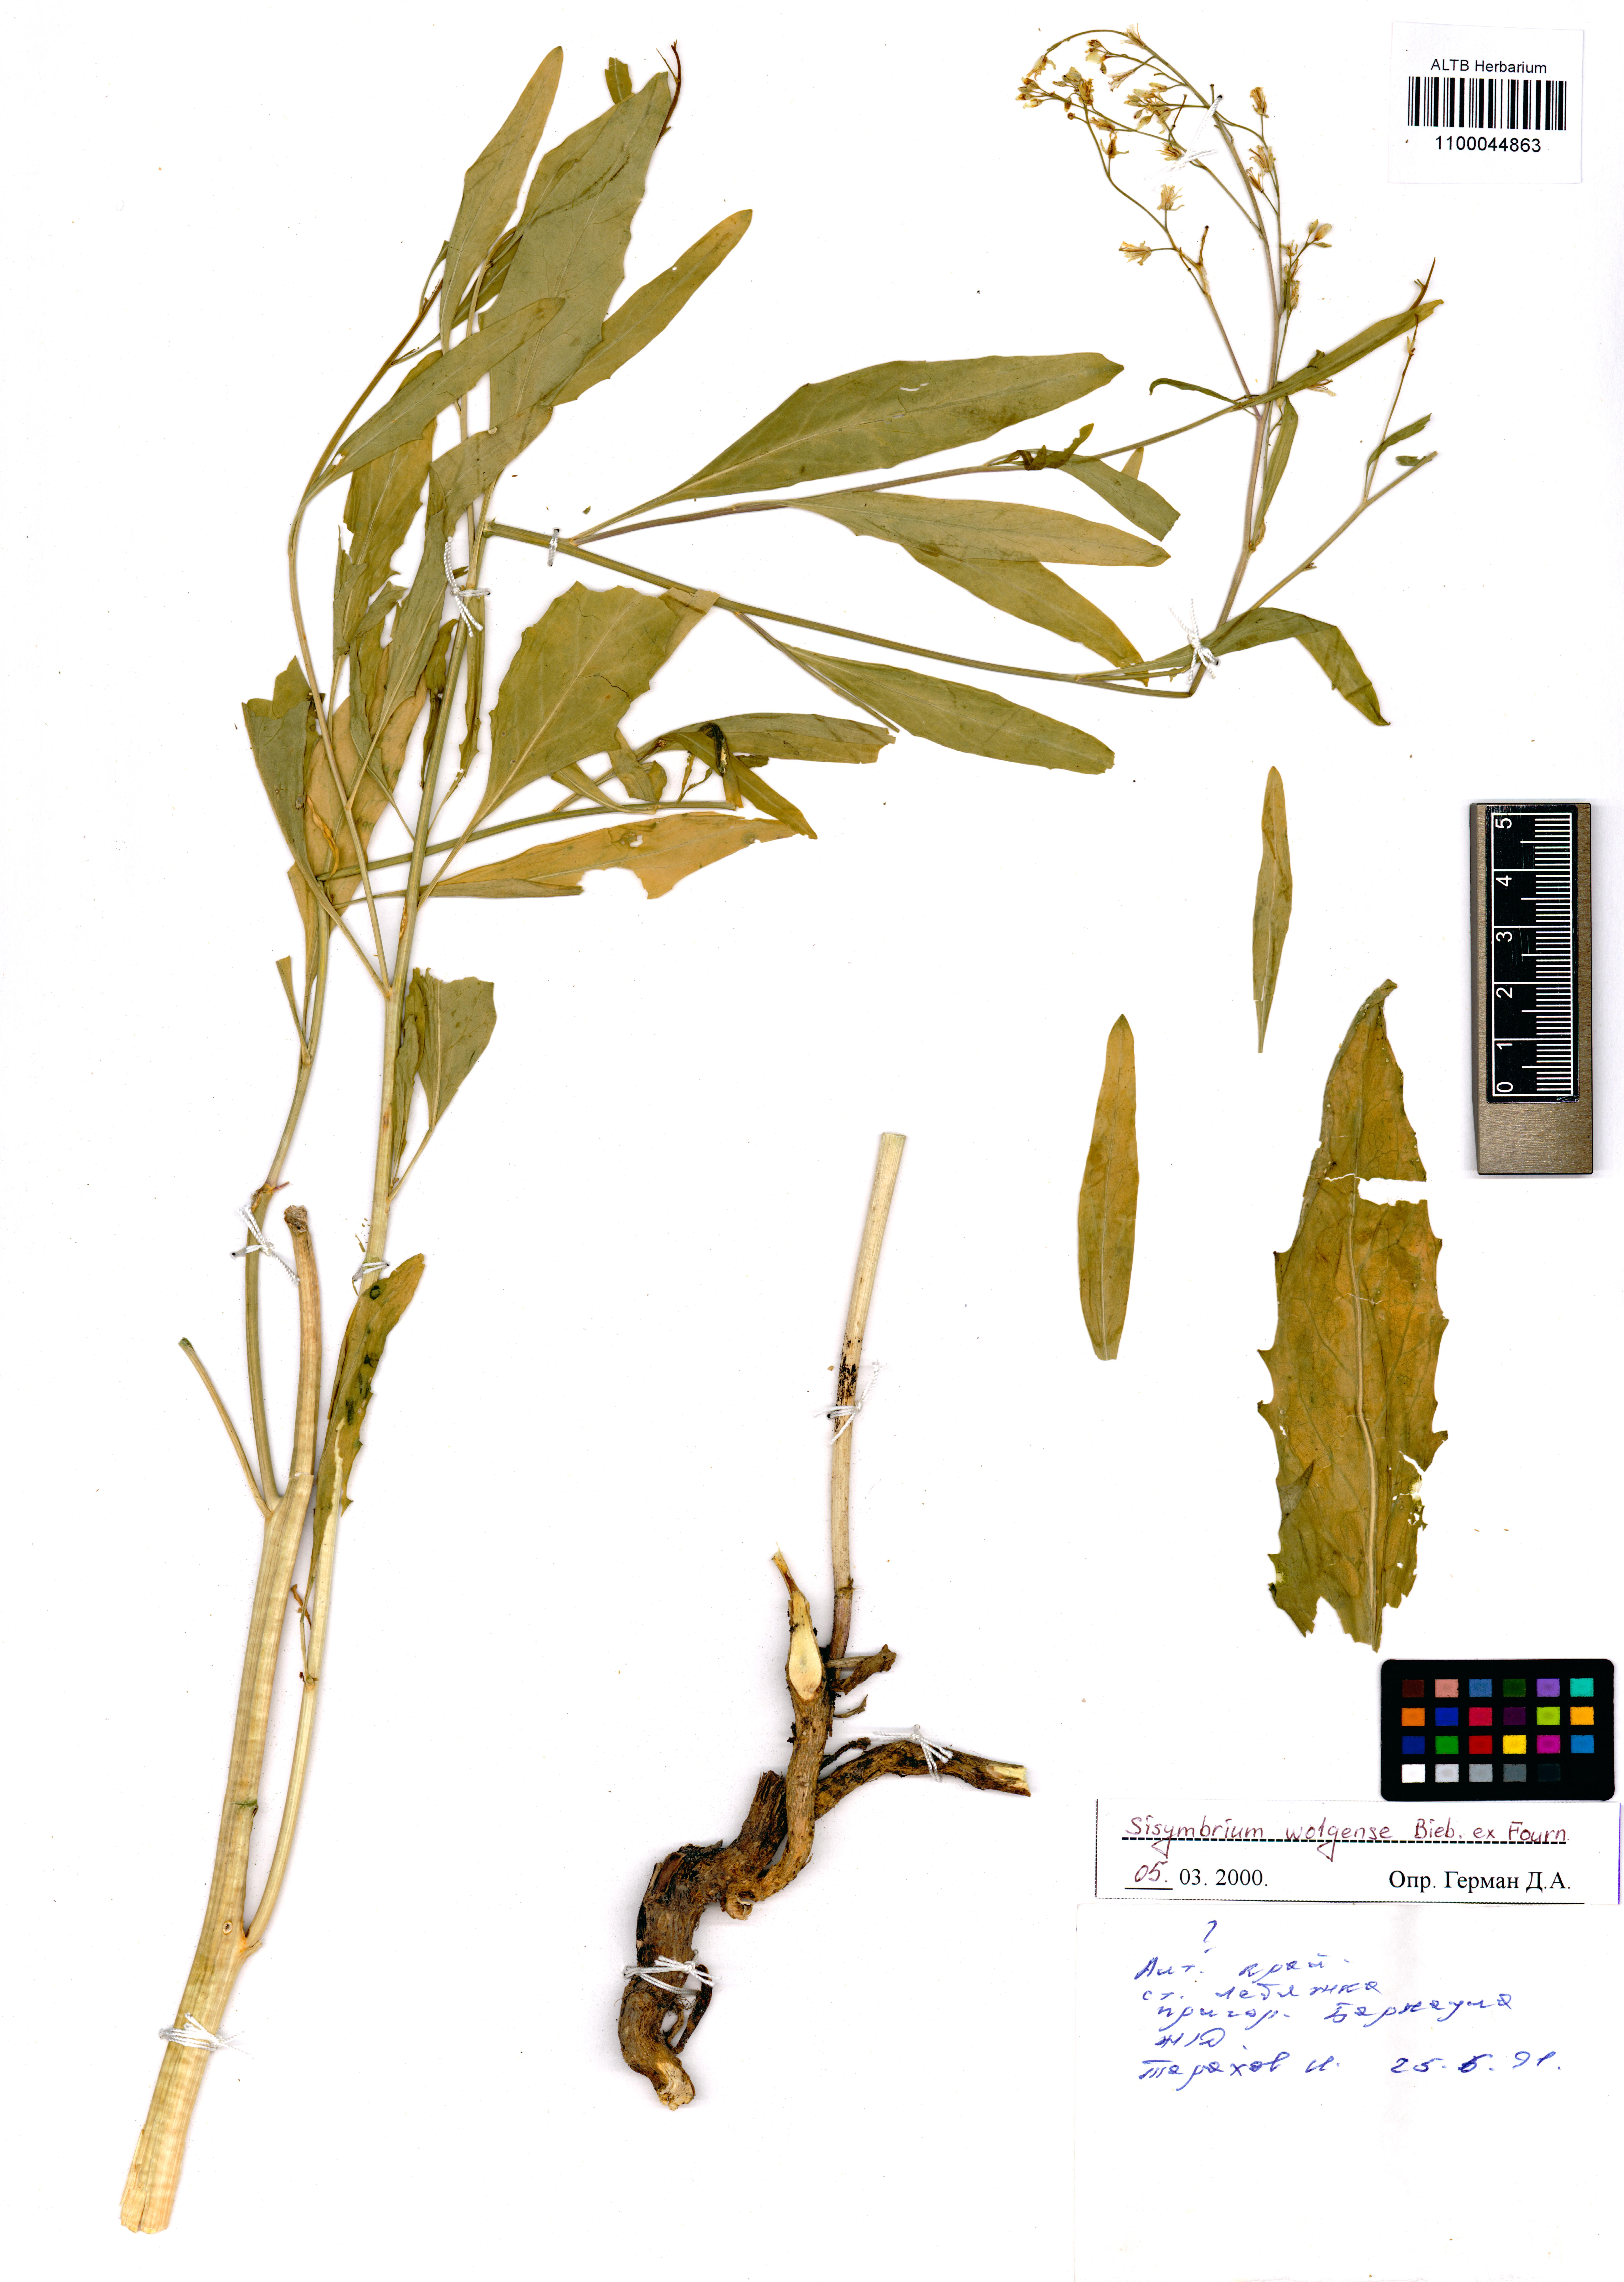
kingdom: Plantae
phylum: Tracheophyta
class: Magnoliopsida
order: Brassicales
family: Brassicaceae
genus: Sisymbrium
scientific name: Sisymbrium volgense
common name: Russian mustard
